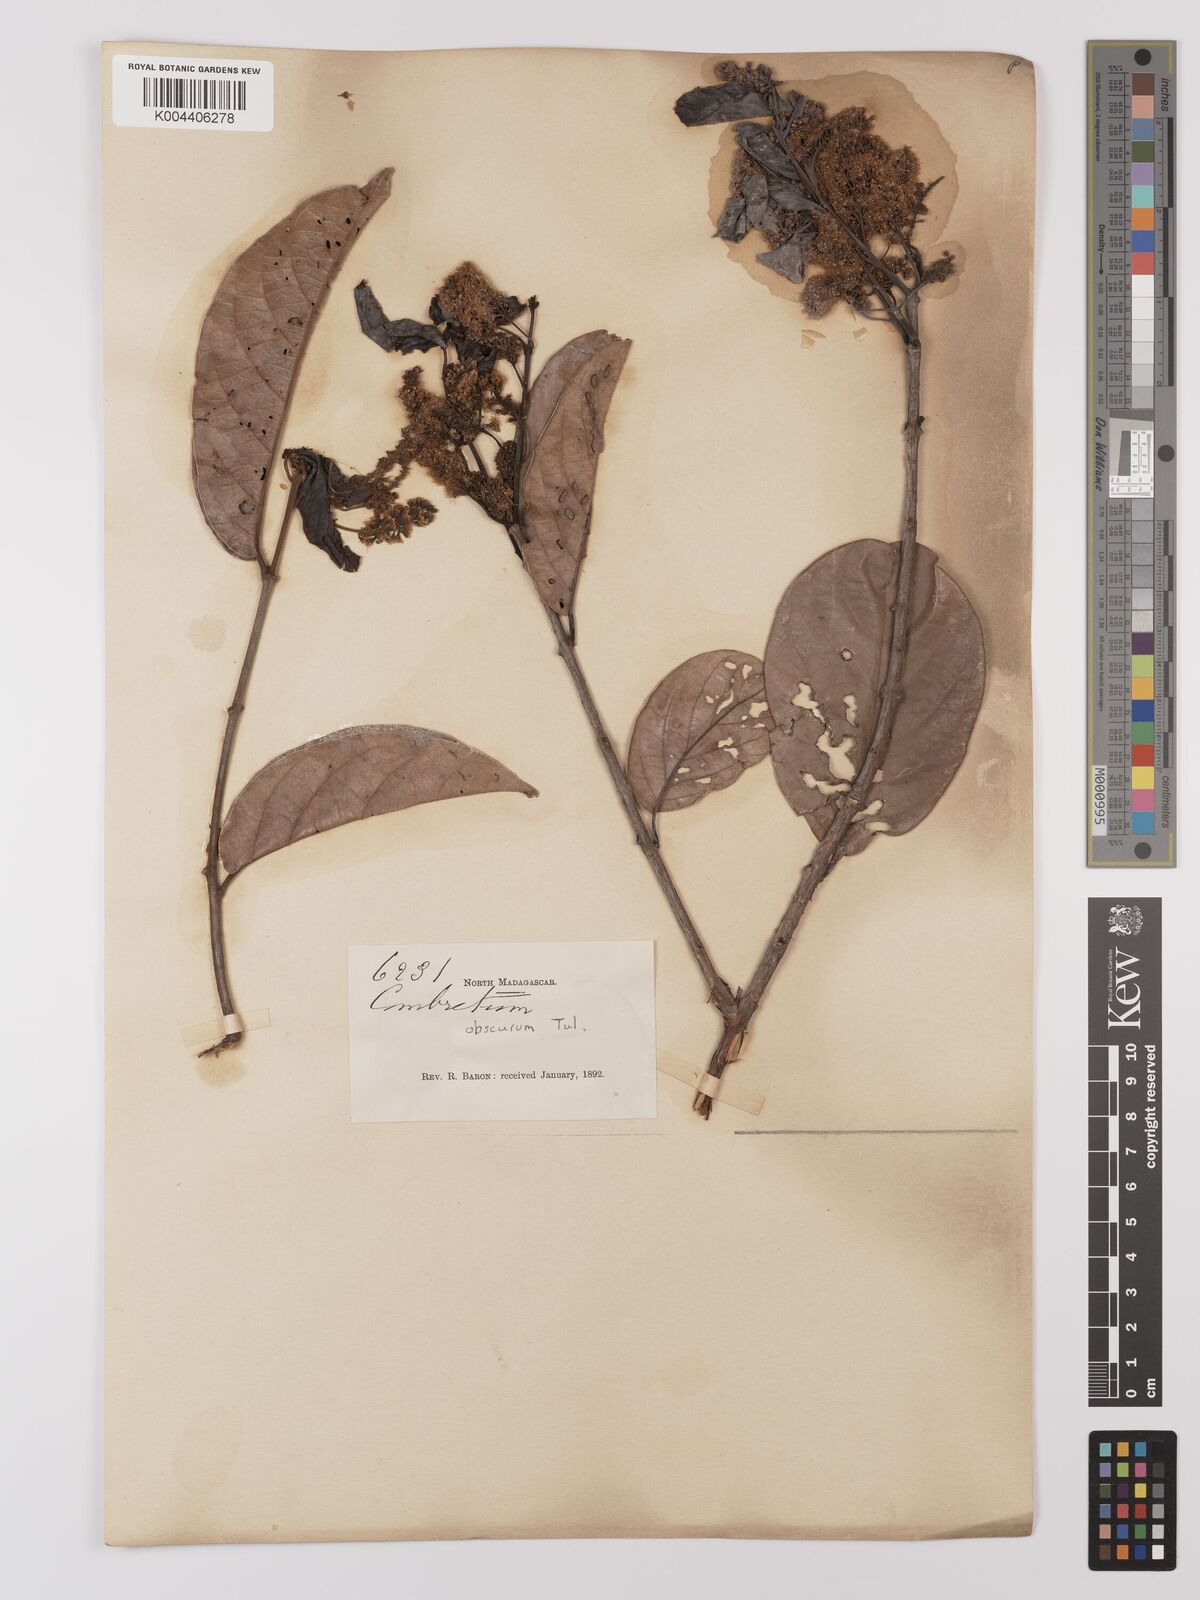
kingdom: Plantae
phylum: Tracheophyta
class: Magnoliopsida
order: Myrtales
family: Combretaceae
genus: Combretum
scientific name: Combretum obscurum
